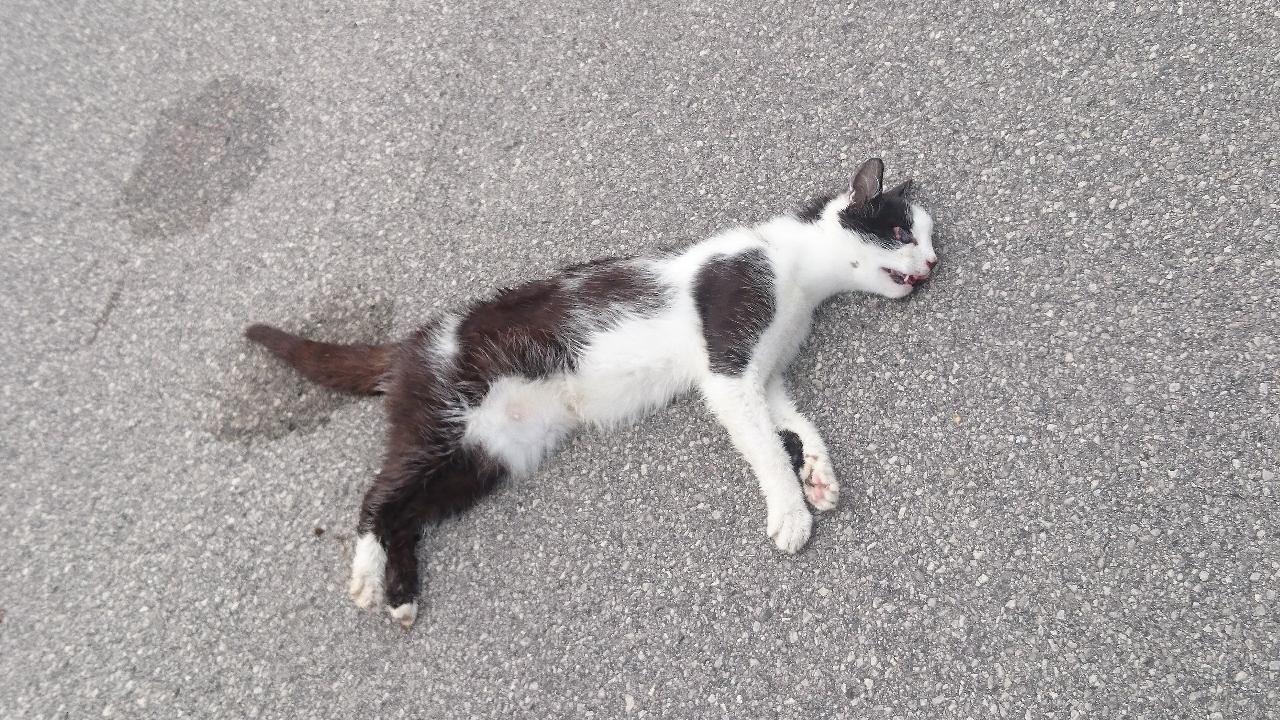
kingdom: Animalia
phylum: Chordata
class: Mammalia
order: Carnivora
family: Felidae
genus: Felis
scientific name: Felis catus
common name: Domestic cat
